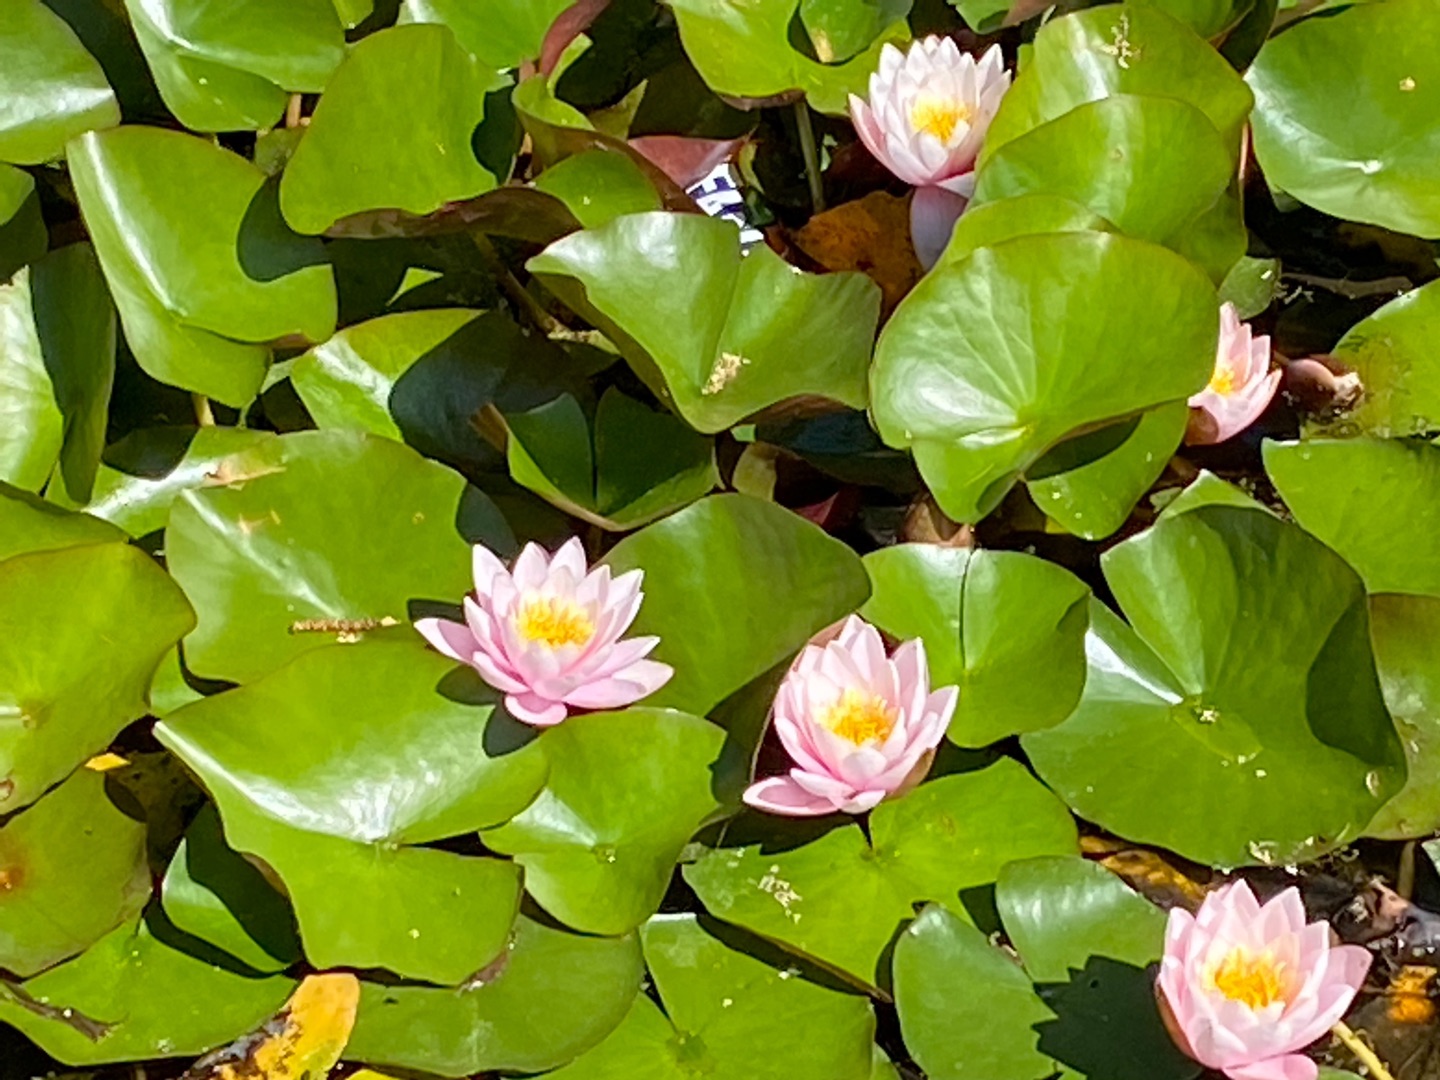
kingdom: Plantae
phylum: Tracheophyta
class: Magnoliopsida
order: Nymphaeales
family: Nymphaeaceae
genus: Nymphaea
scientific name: Nymphaea alba
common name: Hvid åkande
